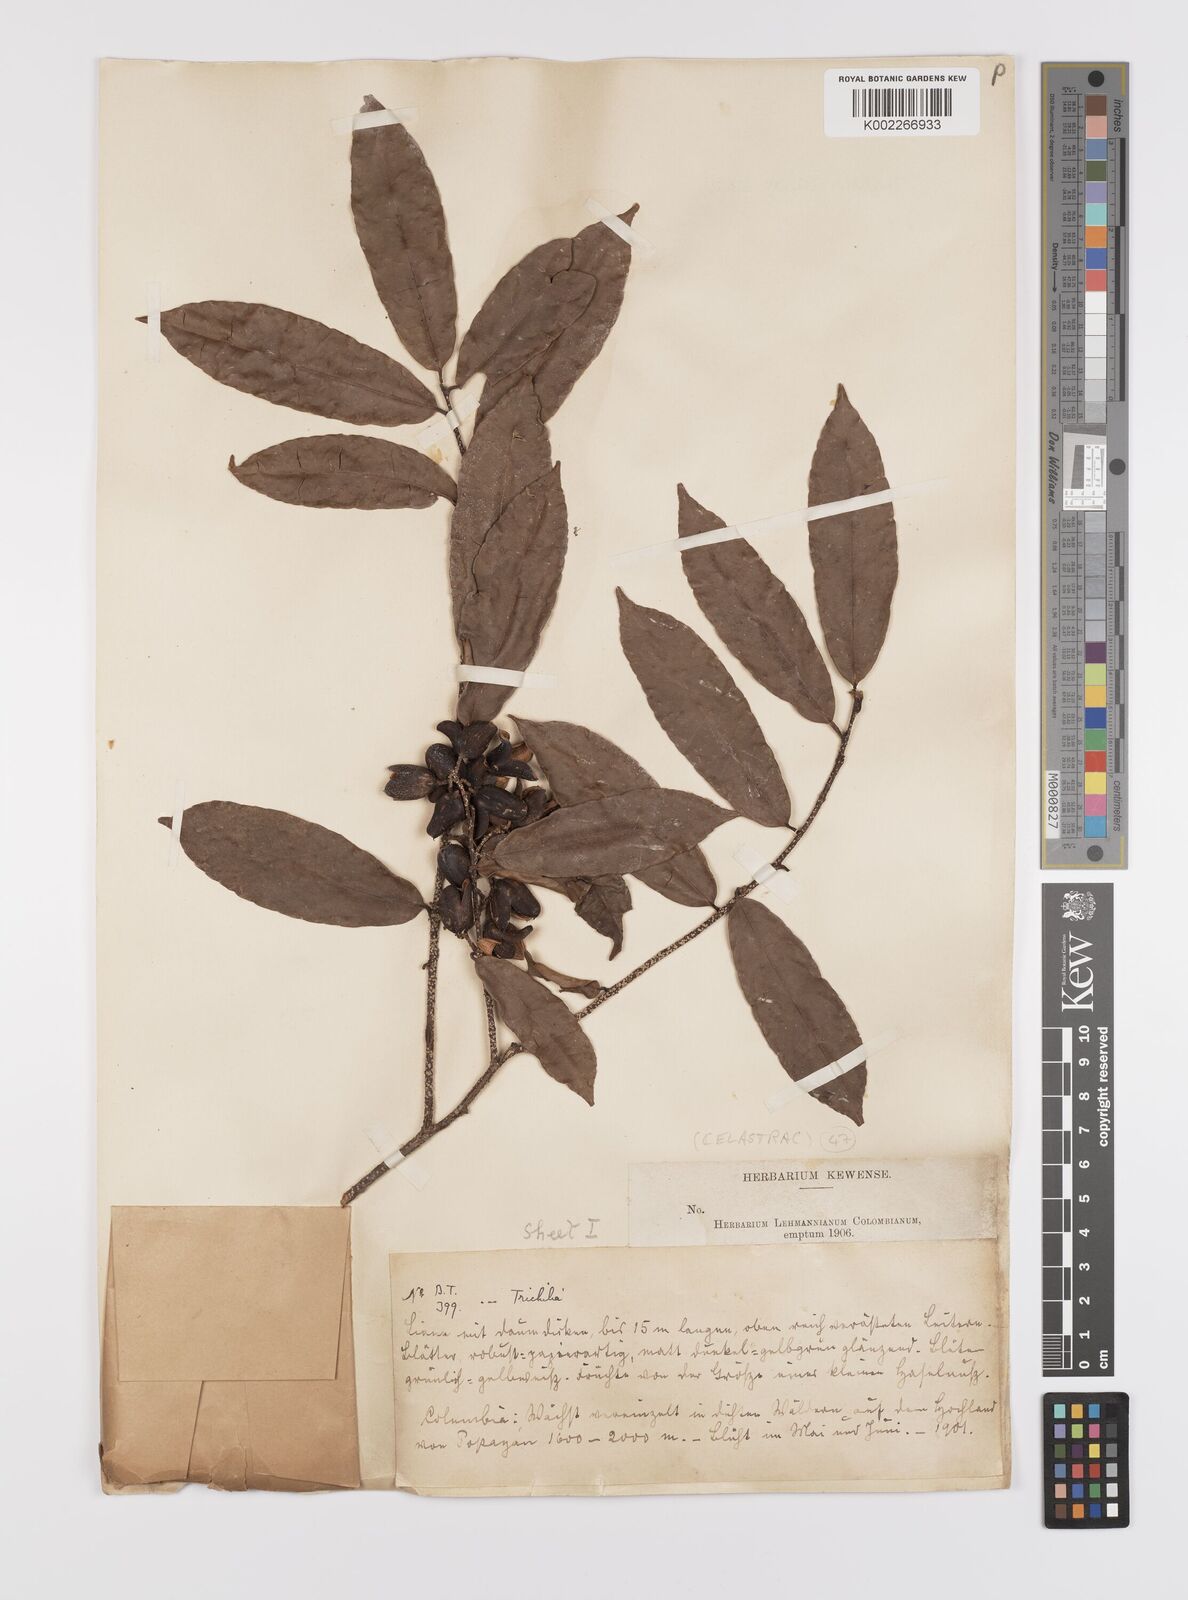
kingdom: Plantae
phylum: Tracheophyta
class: Magnoliopsida
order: Celastrales
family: Celastraceae
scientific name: Celastraceae
